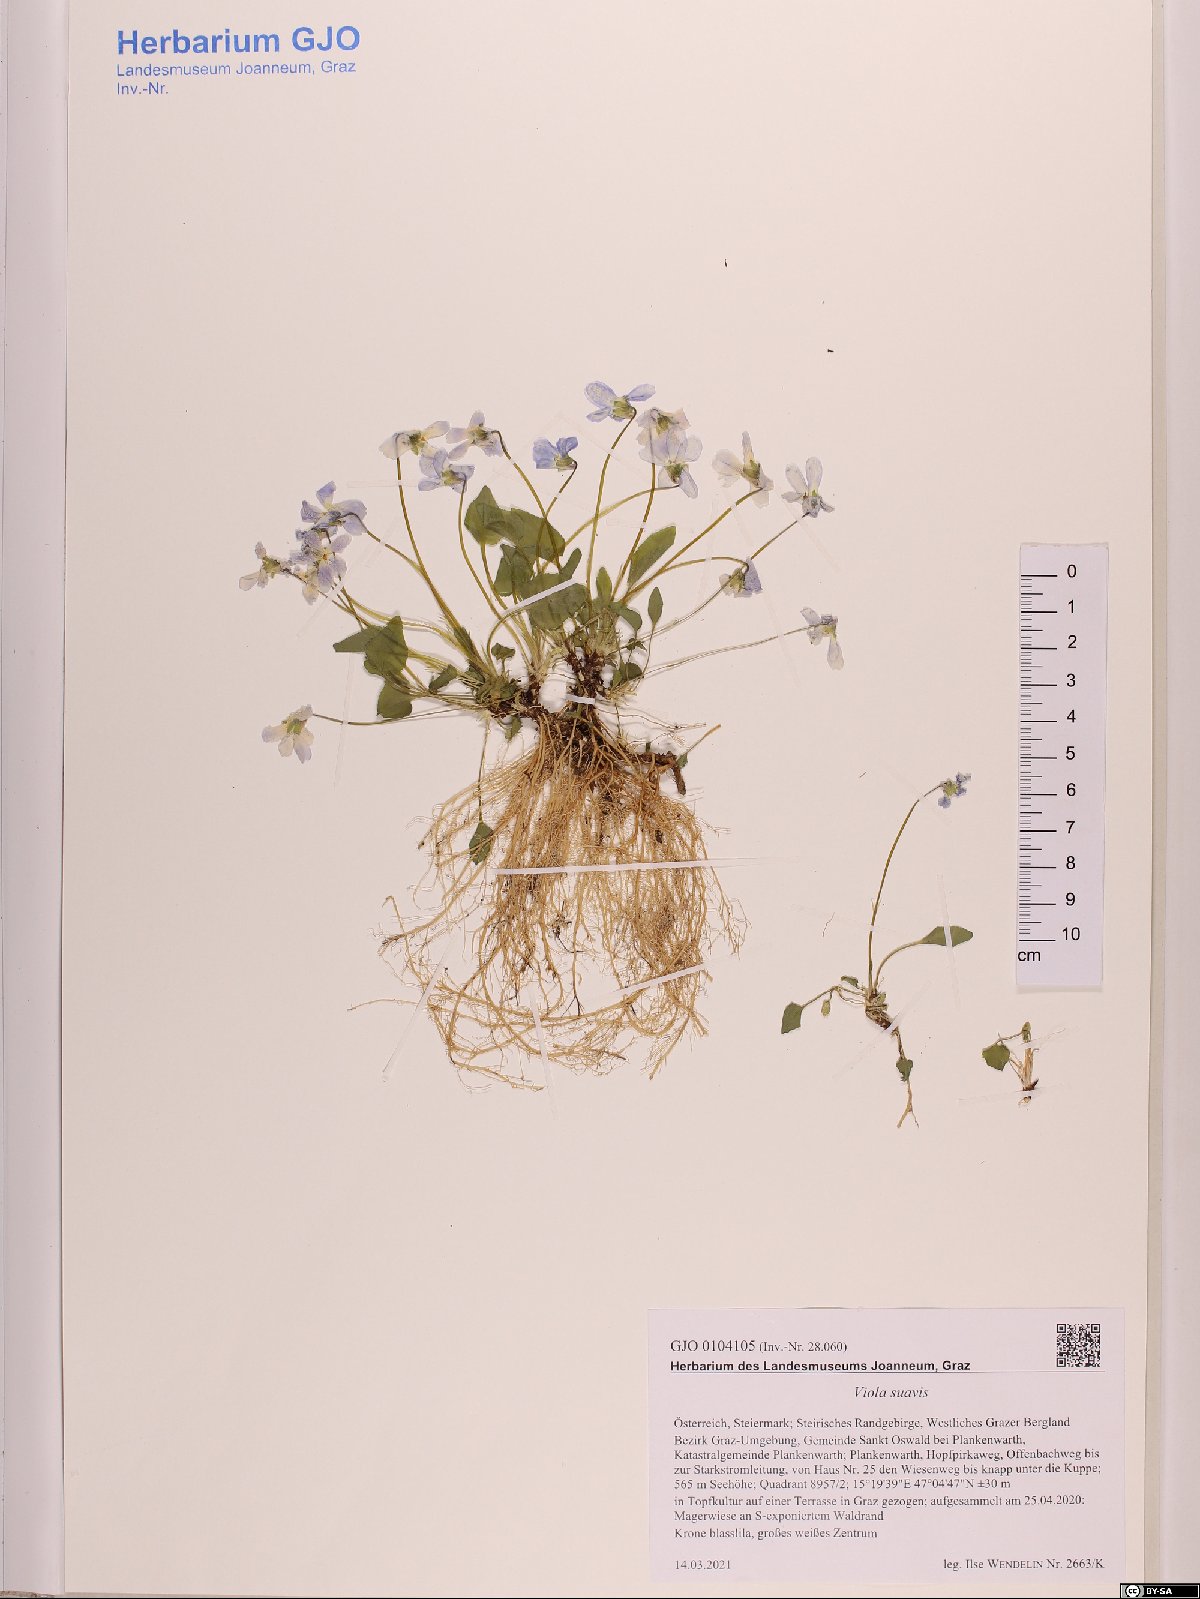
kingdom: Plantae
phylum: Tracheophyta
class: Magnoliopsida
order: Malpighiales
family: Violaceae
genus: Viola
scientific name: Viola suavis
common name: Russian violet
